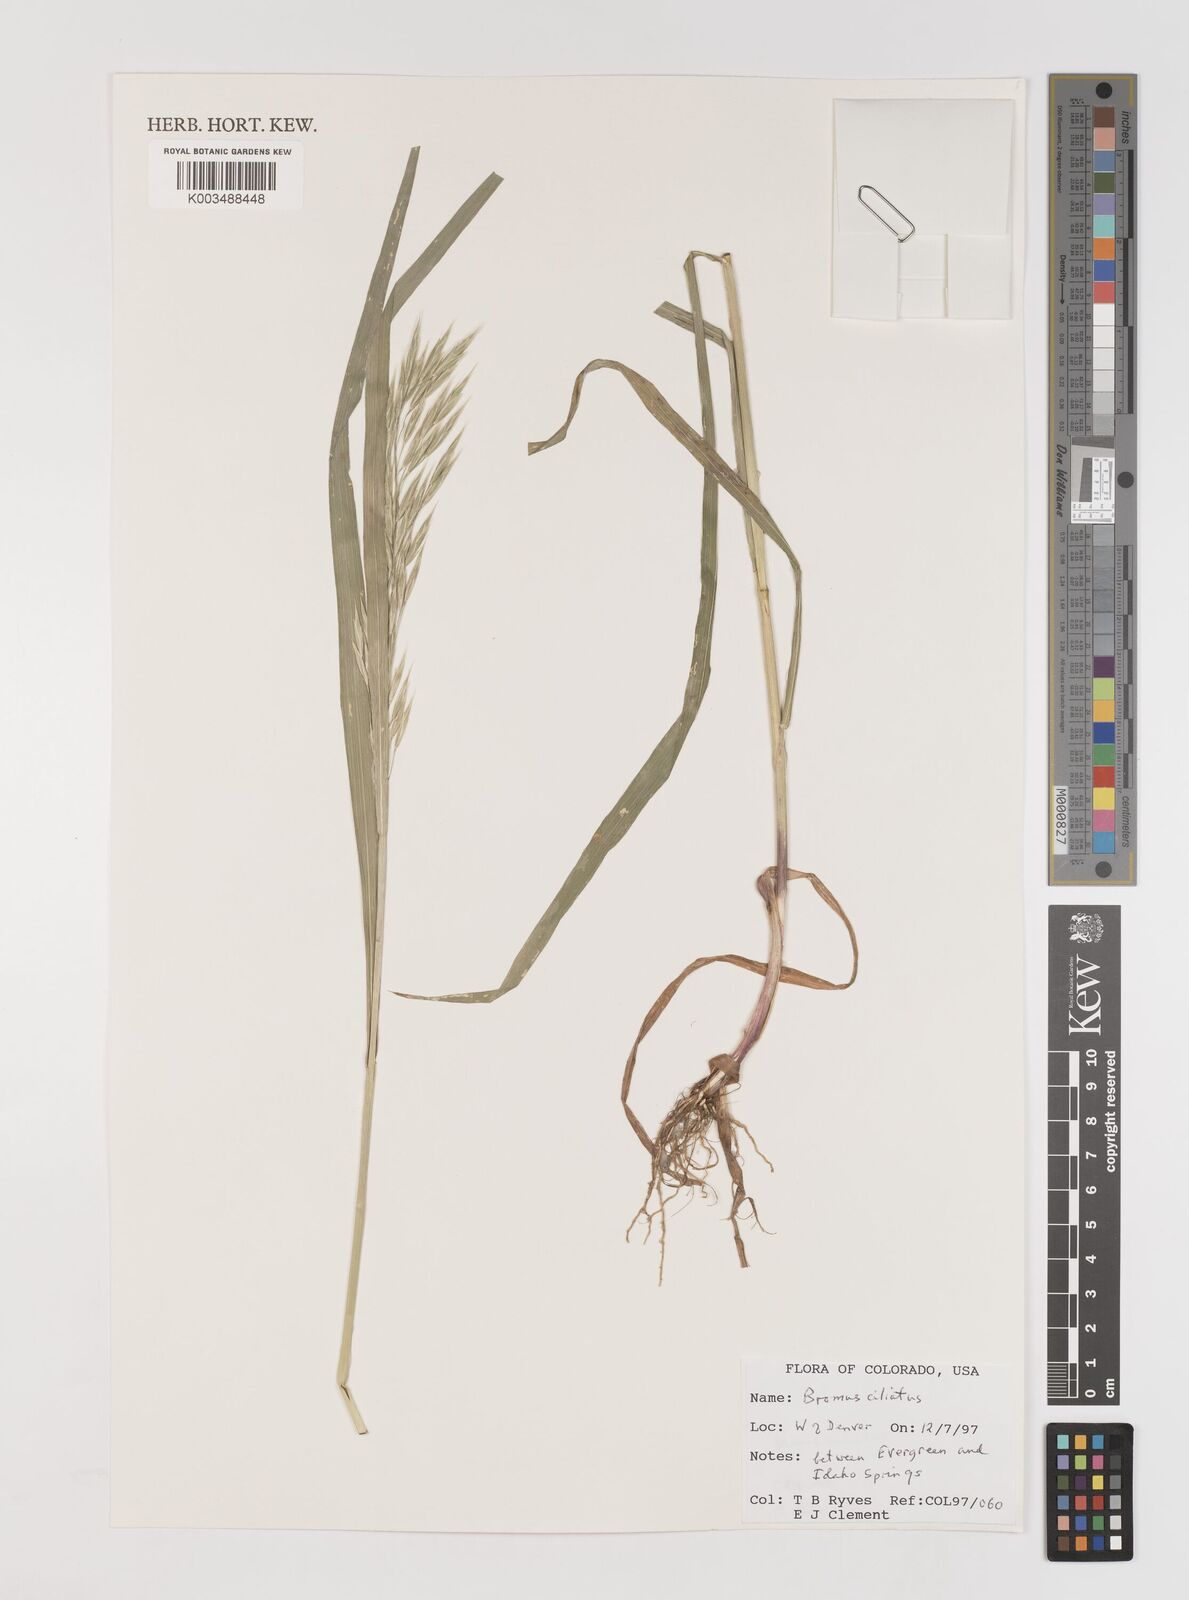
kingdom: Plantae
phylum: Tracheophyta
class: Liliopsida
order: Poales
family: Poaceae
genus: Bromus
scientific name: Bromus ciliatus
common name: Fringe brome
